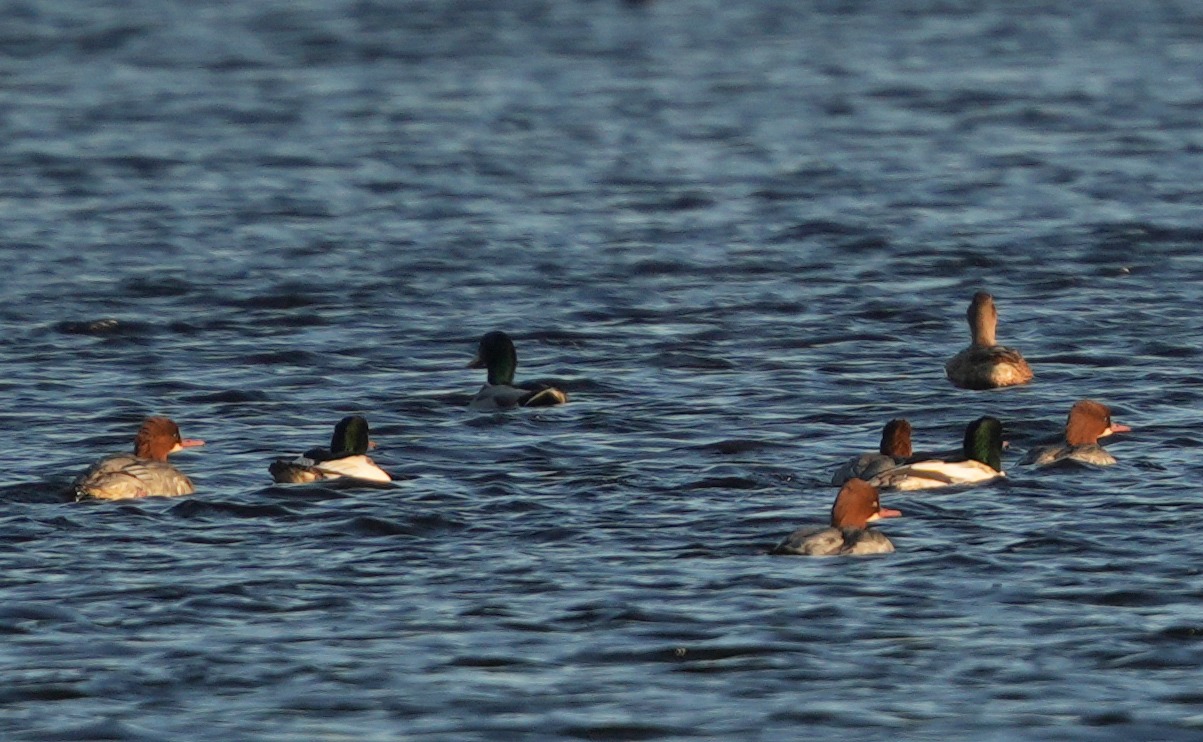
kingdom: Animalia
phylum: Chordata
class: Aves
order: Anseriformes
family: Anatidae
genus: Mergus
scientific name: Mergus merganser
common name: Stor skallesluger
